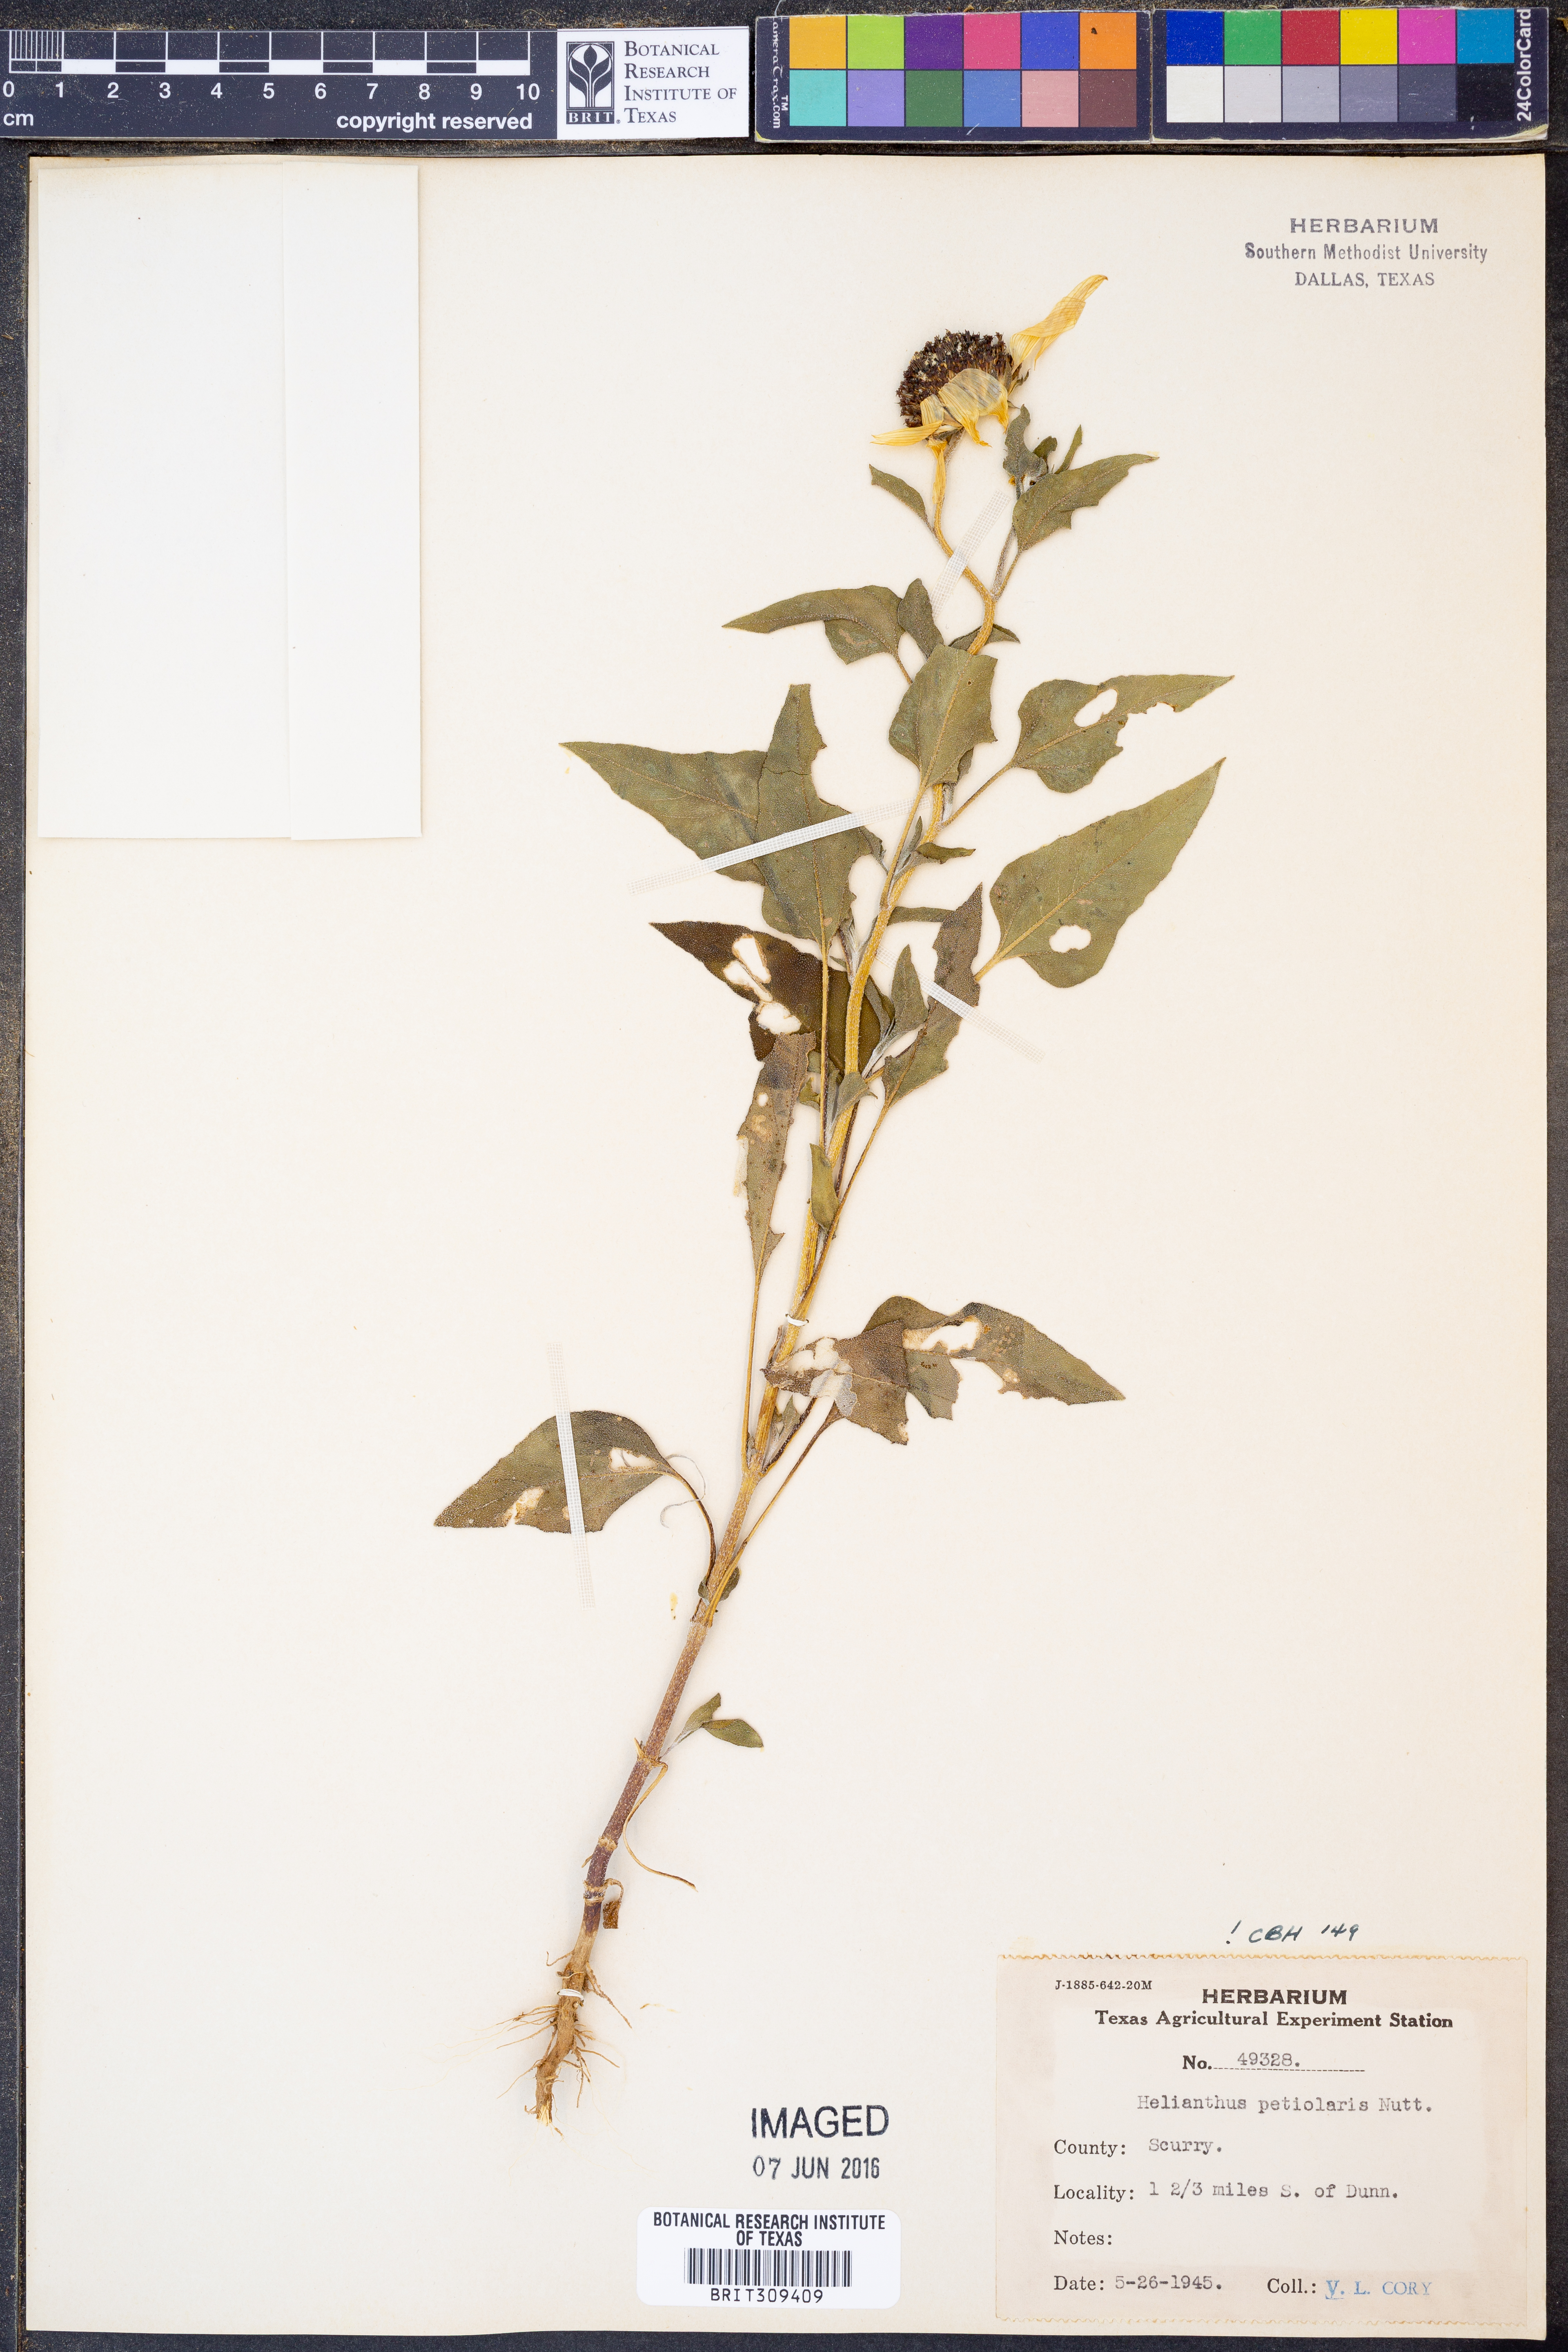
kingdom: Plantae
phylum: Tracheophyta
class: Magnoliopsida
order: Asterales
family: Asteraceae
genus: Helianthus
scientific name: Helianthus petiolaris
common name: Lesser sunflower
